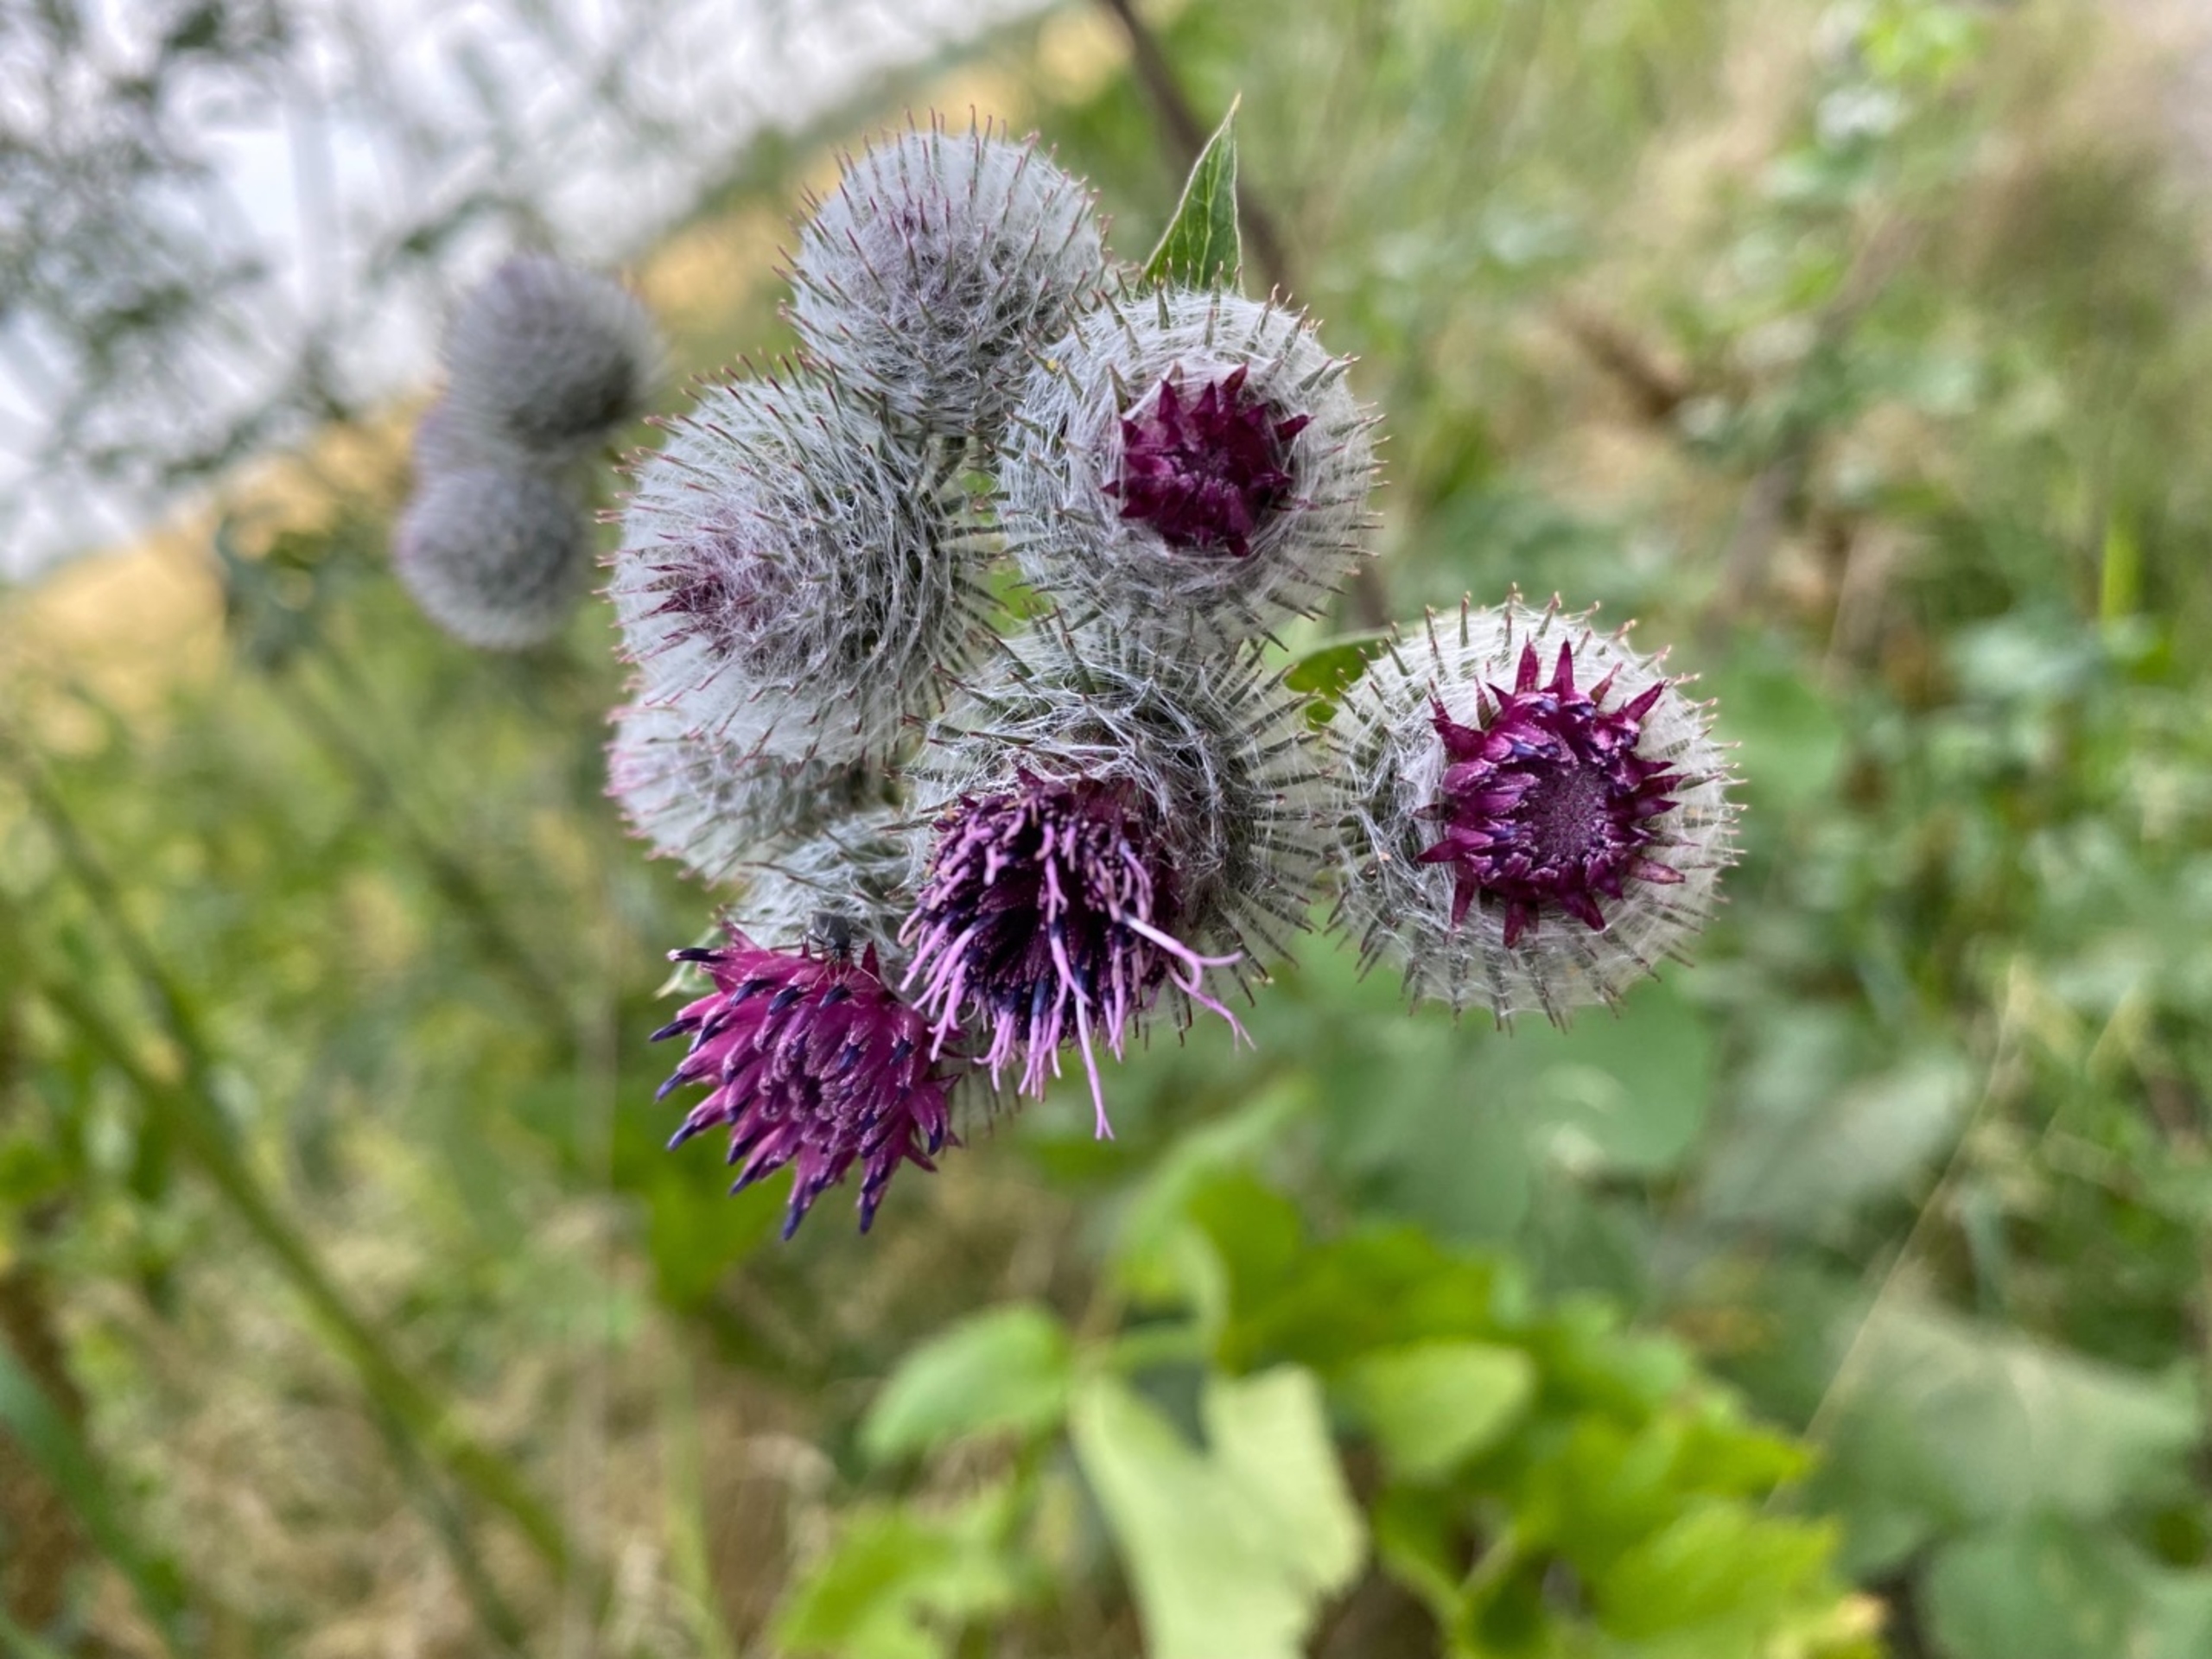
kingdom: Plantae
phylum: Tracheophyta
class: Magnoliopsida
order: Asterales
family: Asteraceae
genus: Arctium
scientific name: Arctium tomentosum
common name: Filtet burre
